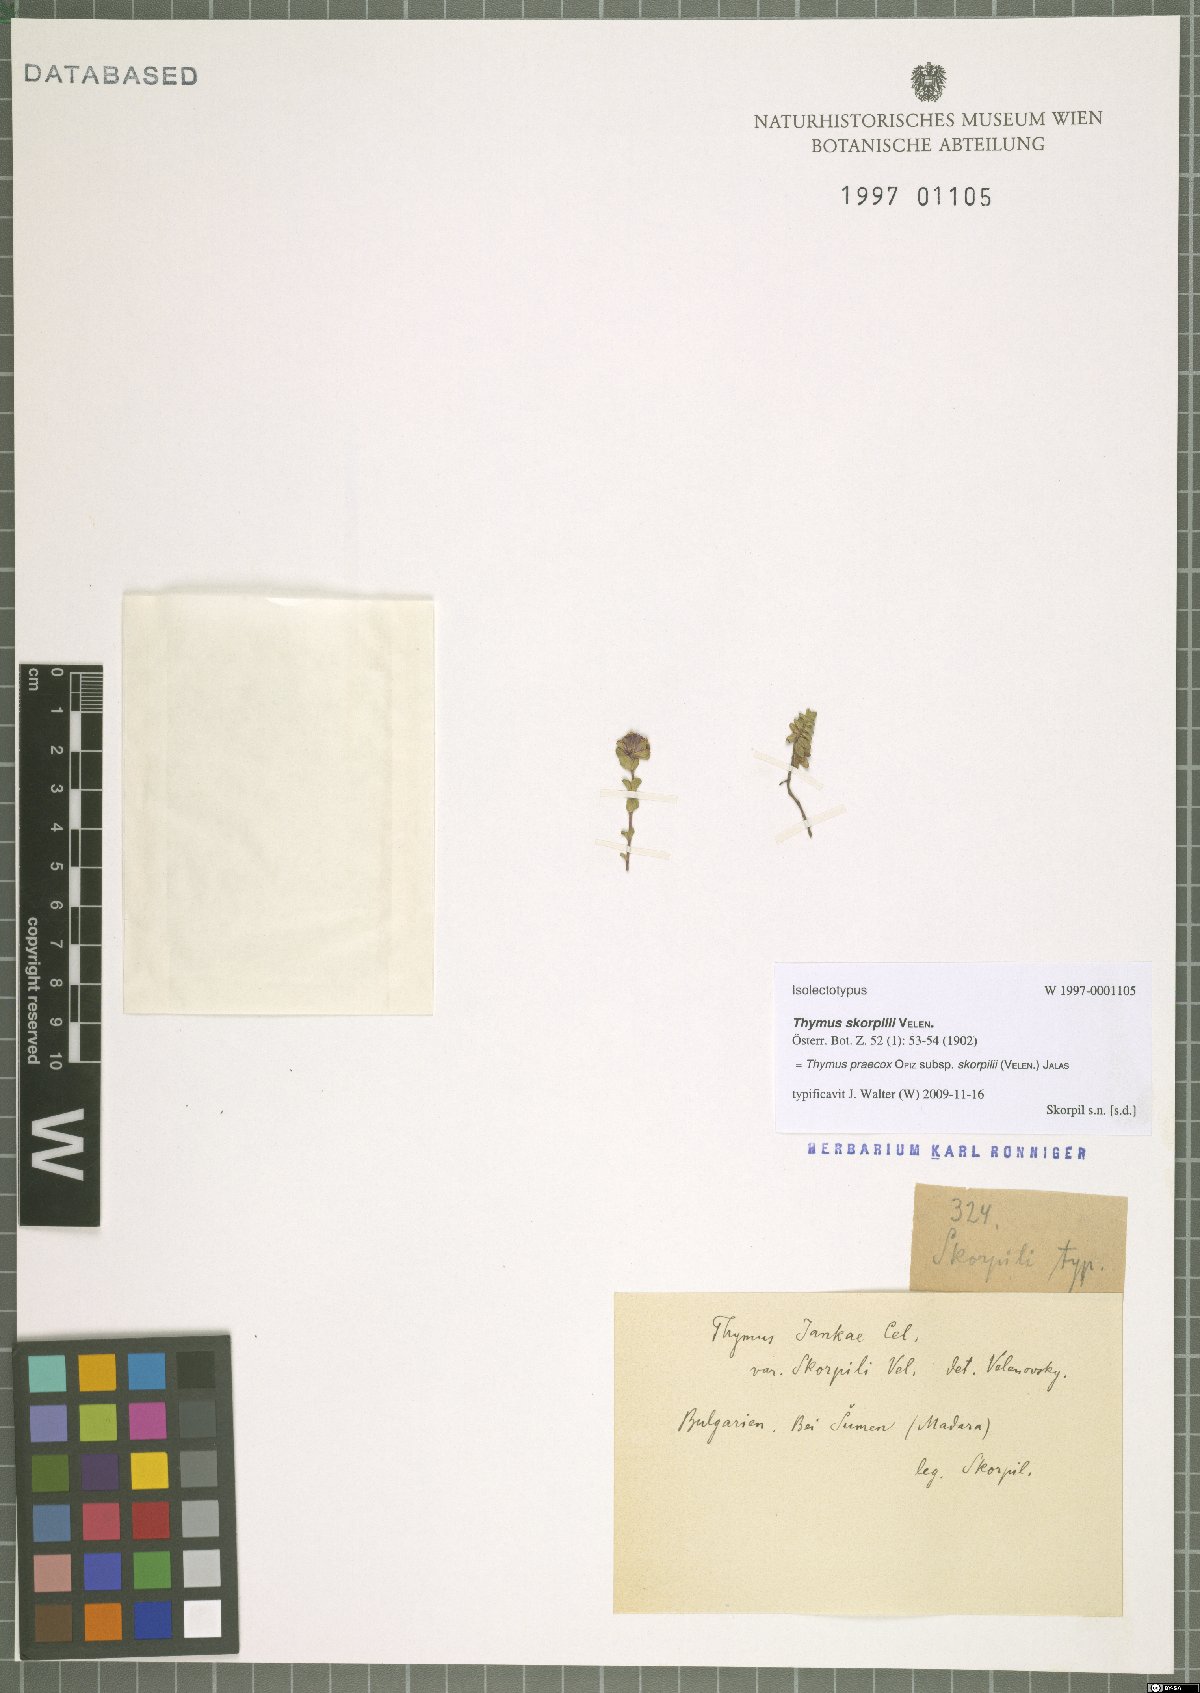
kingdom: Plantae
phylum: Tracheophyta
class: Magnoliopsida
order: Lamiales
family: Lamiaceae
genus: Thymus
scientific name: Thymus jankae
